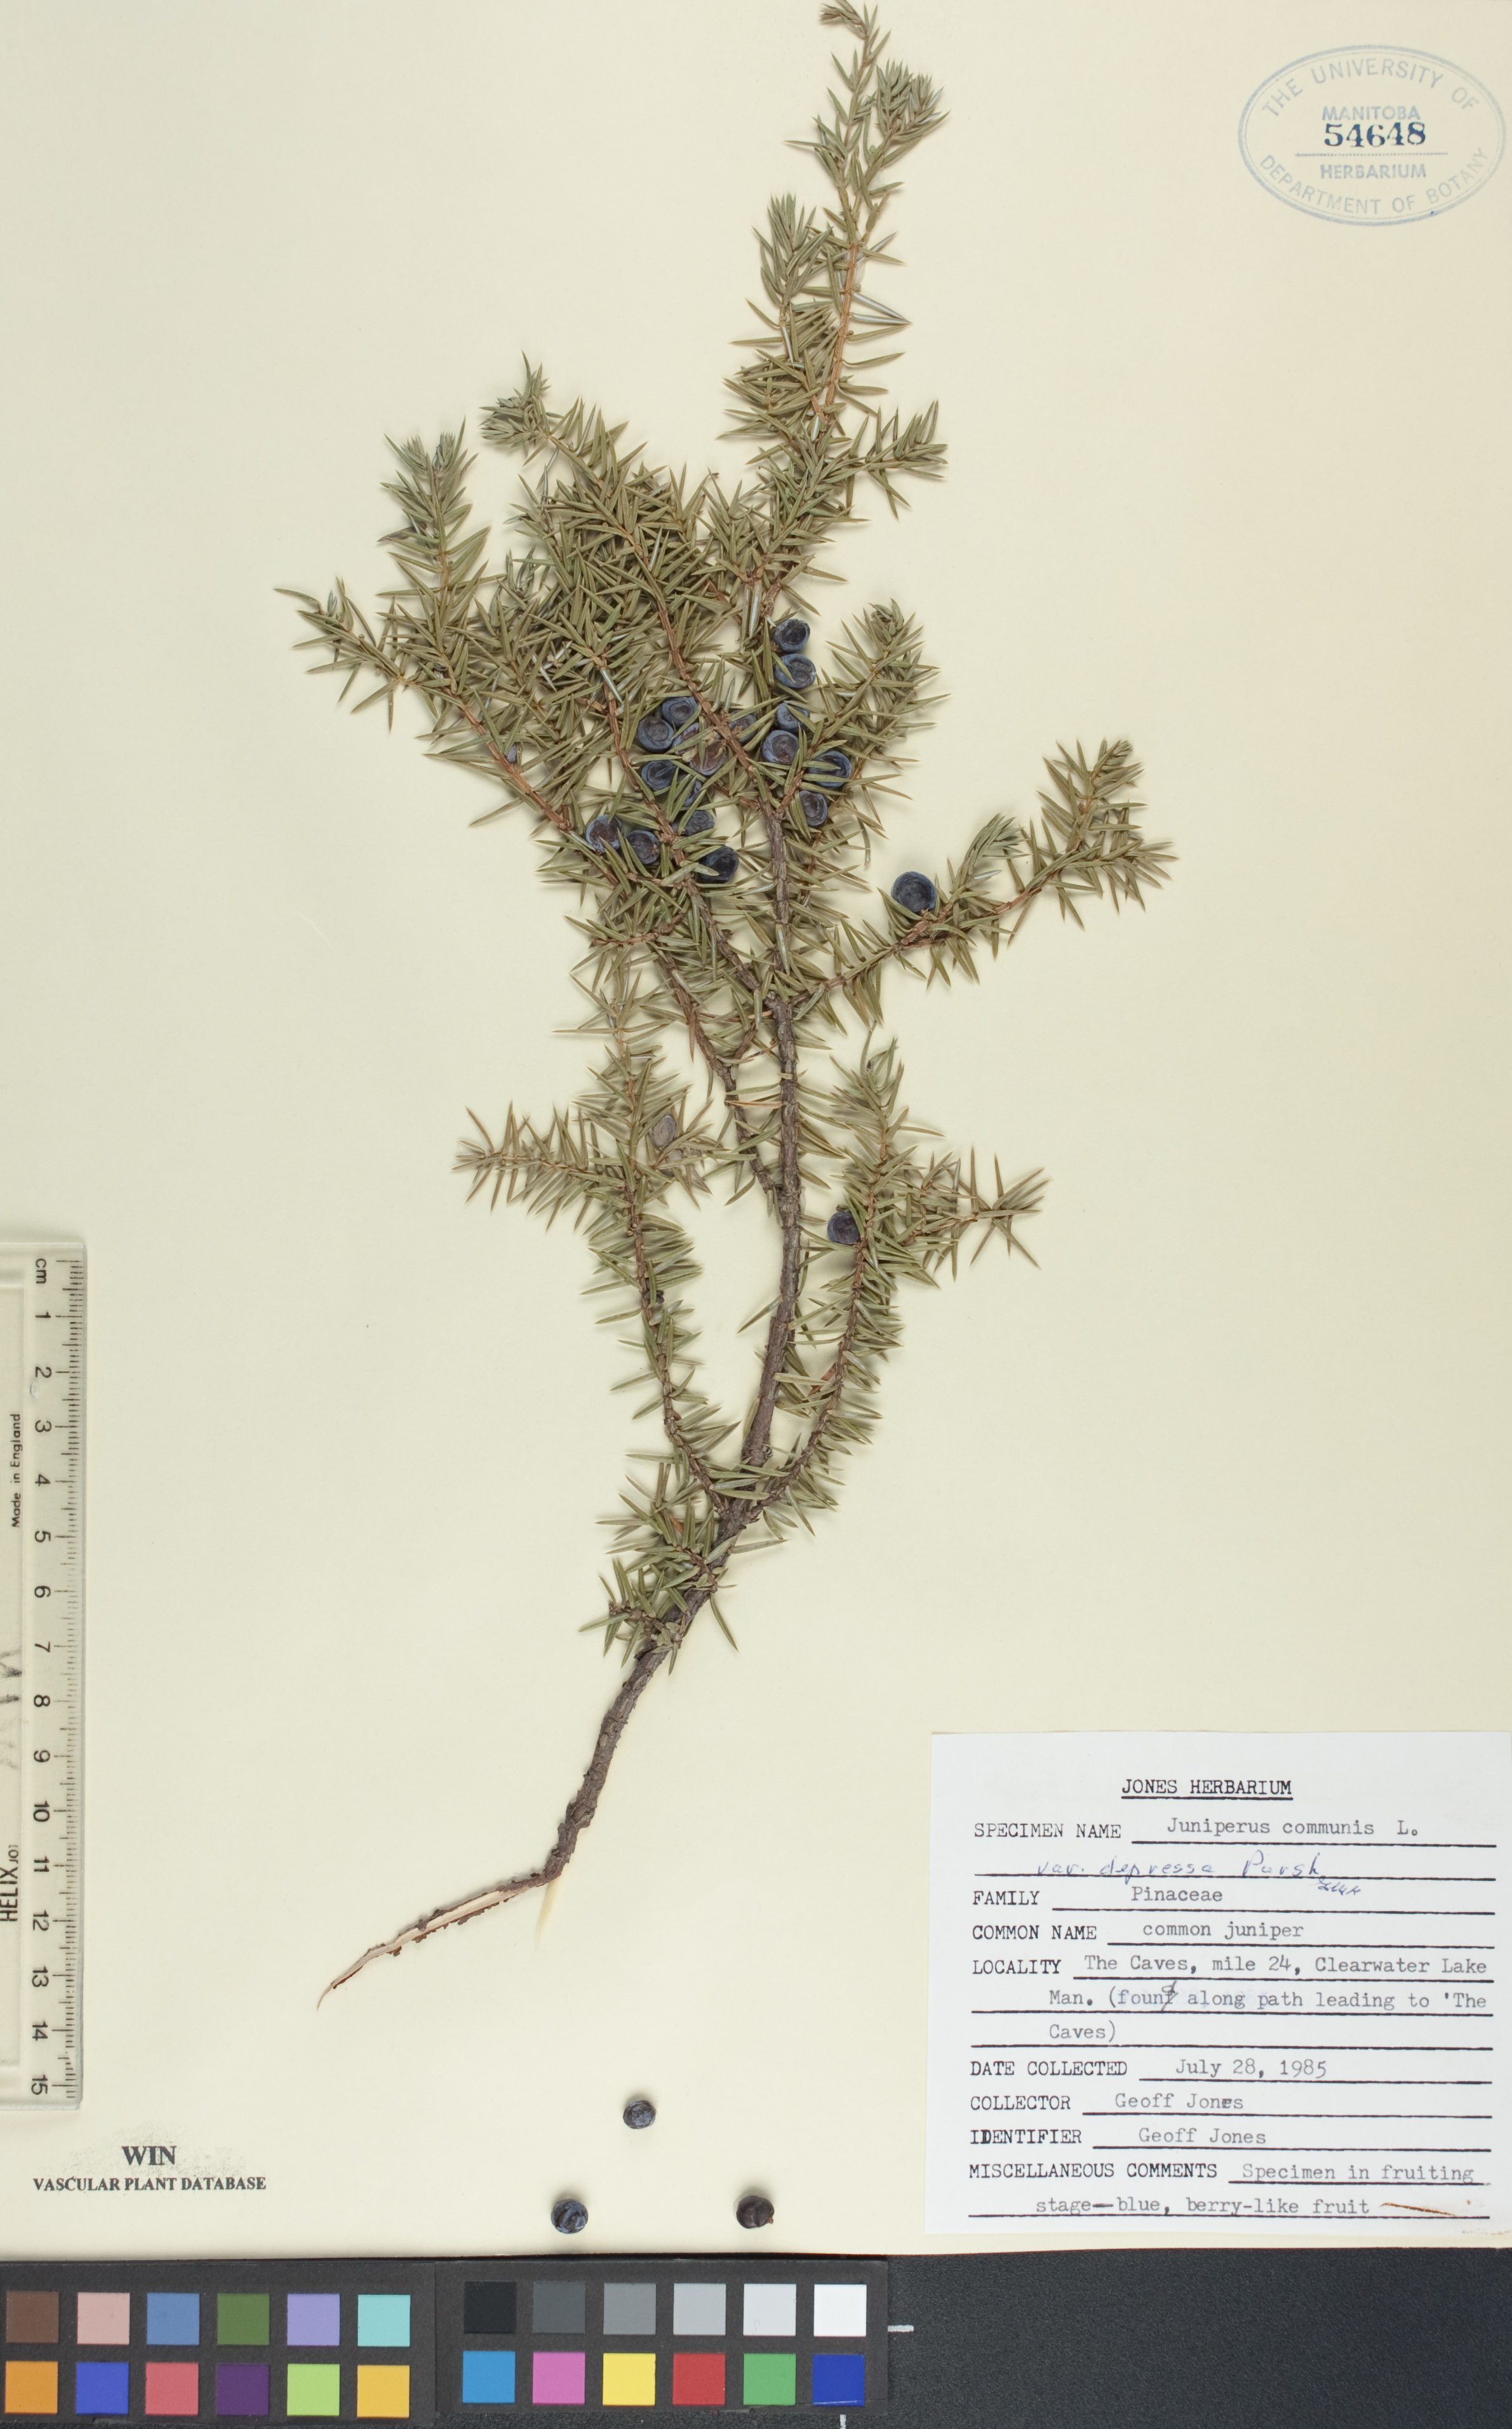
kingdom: Plantae
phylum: Tracheophyta
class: Pinopsida
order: Pinales
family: Cupressaceae
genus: Juniperus
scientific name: Juniperus communis
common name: Common juniper
